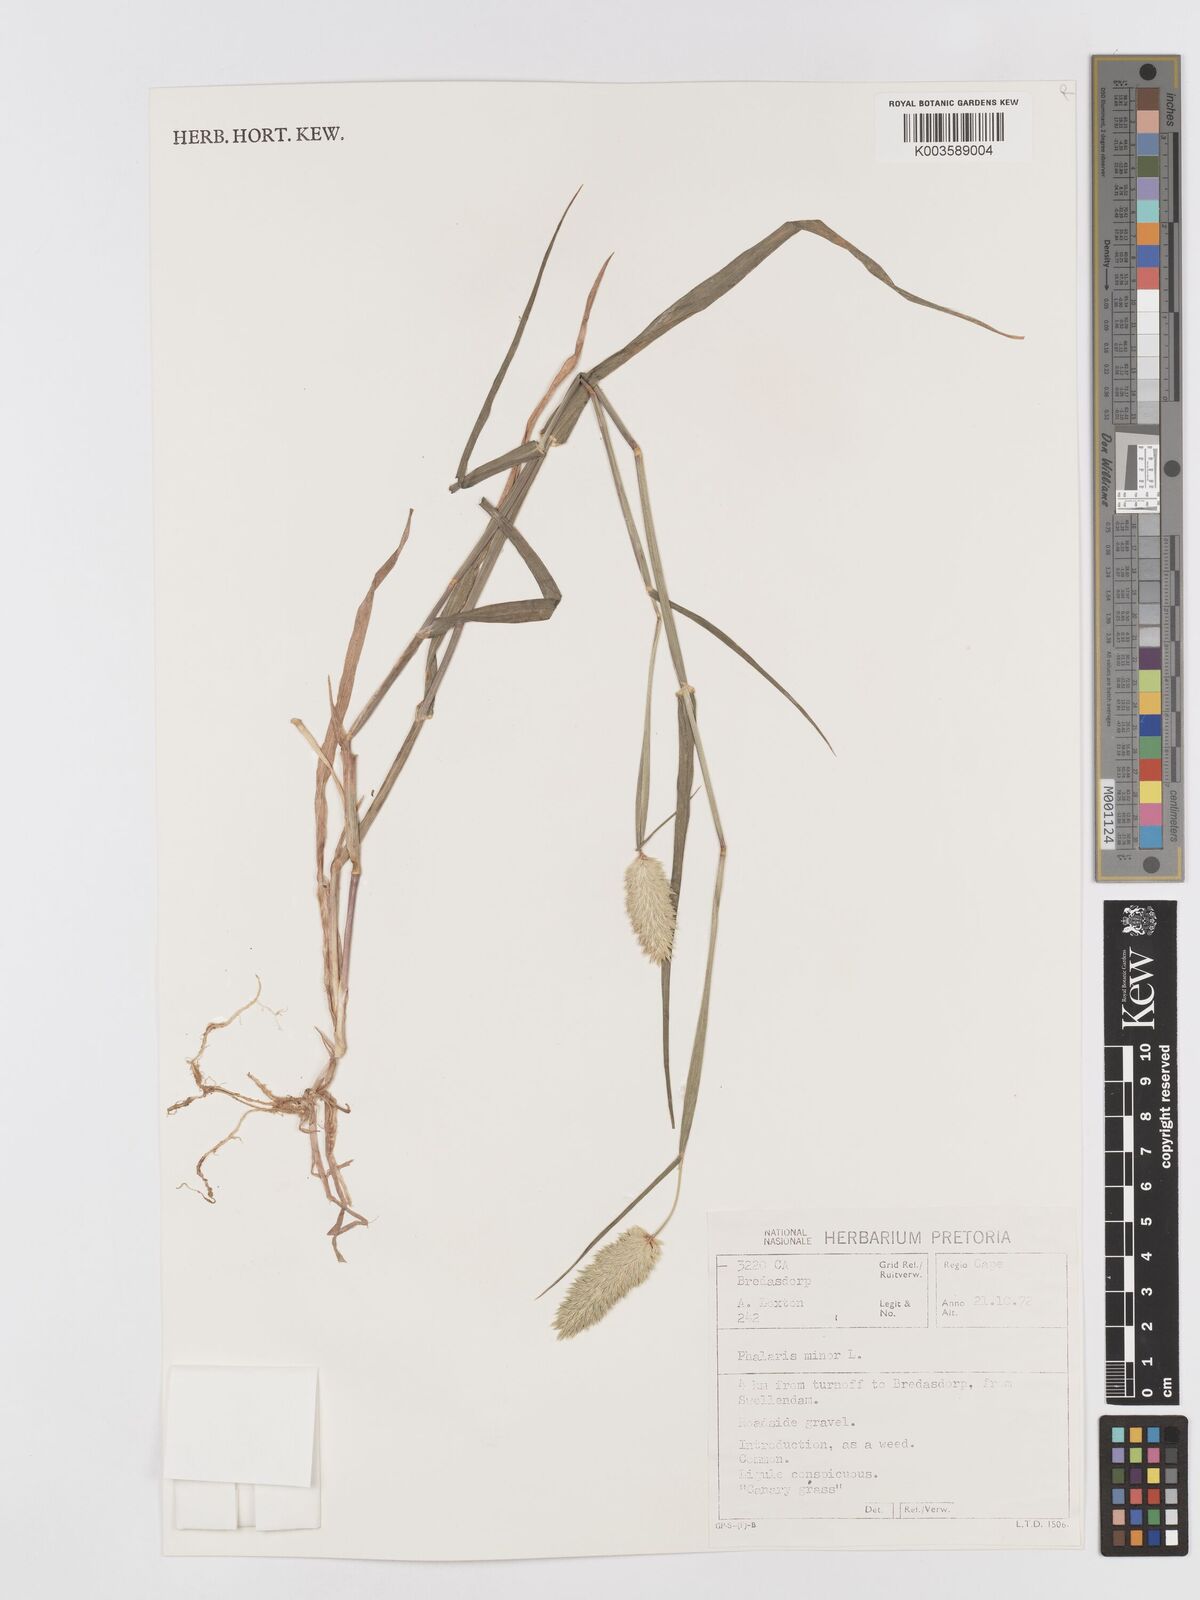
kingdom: Plantae
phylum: Tracheophyta
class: Liliopsida
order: Poales
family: Poaceae
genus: Phalaris
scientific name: Phalaris minor
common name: Littleseed canarygrass
